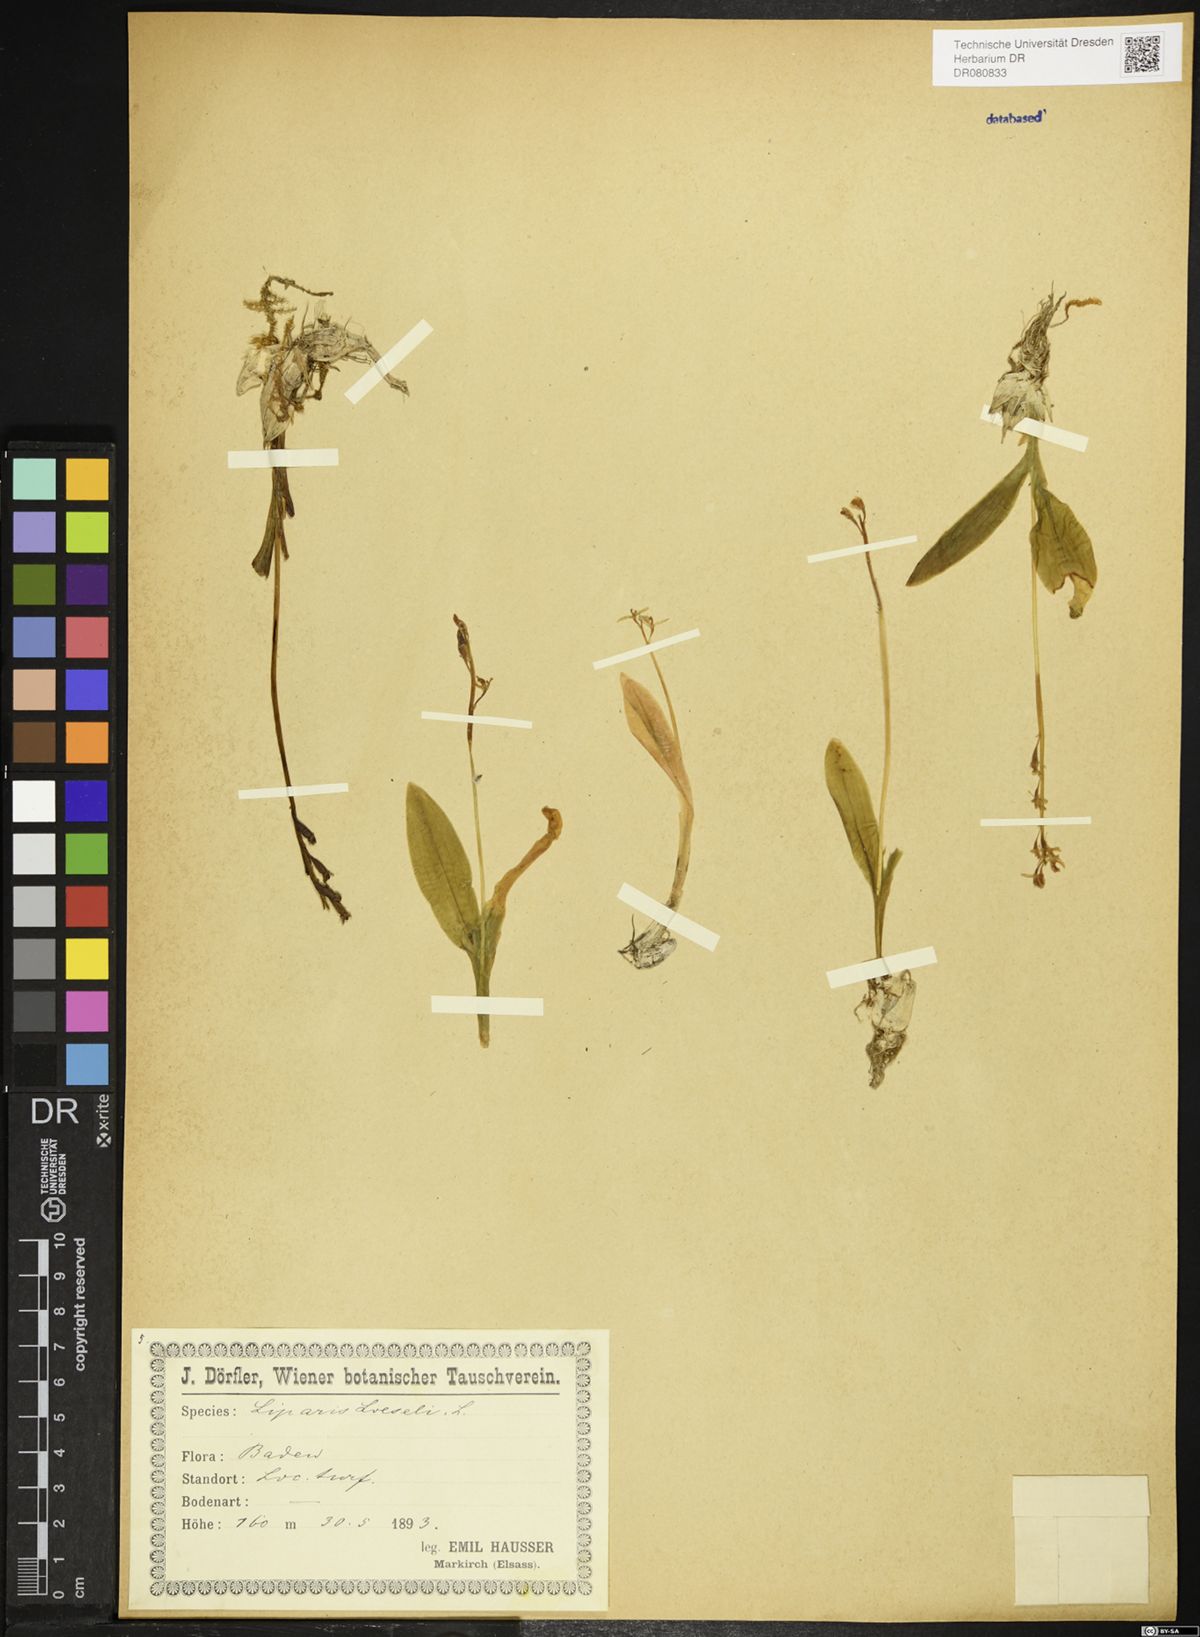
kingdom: Animalia
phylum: Arthropoda
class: Insecta
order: Coleoptera
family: Curculionidae
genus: Liparis
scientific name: Liparis loeselii
